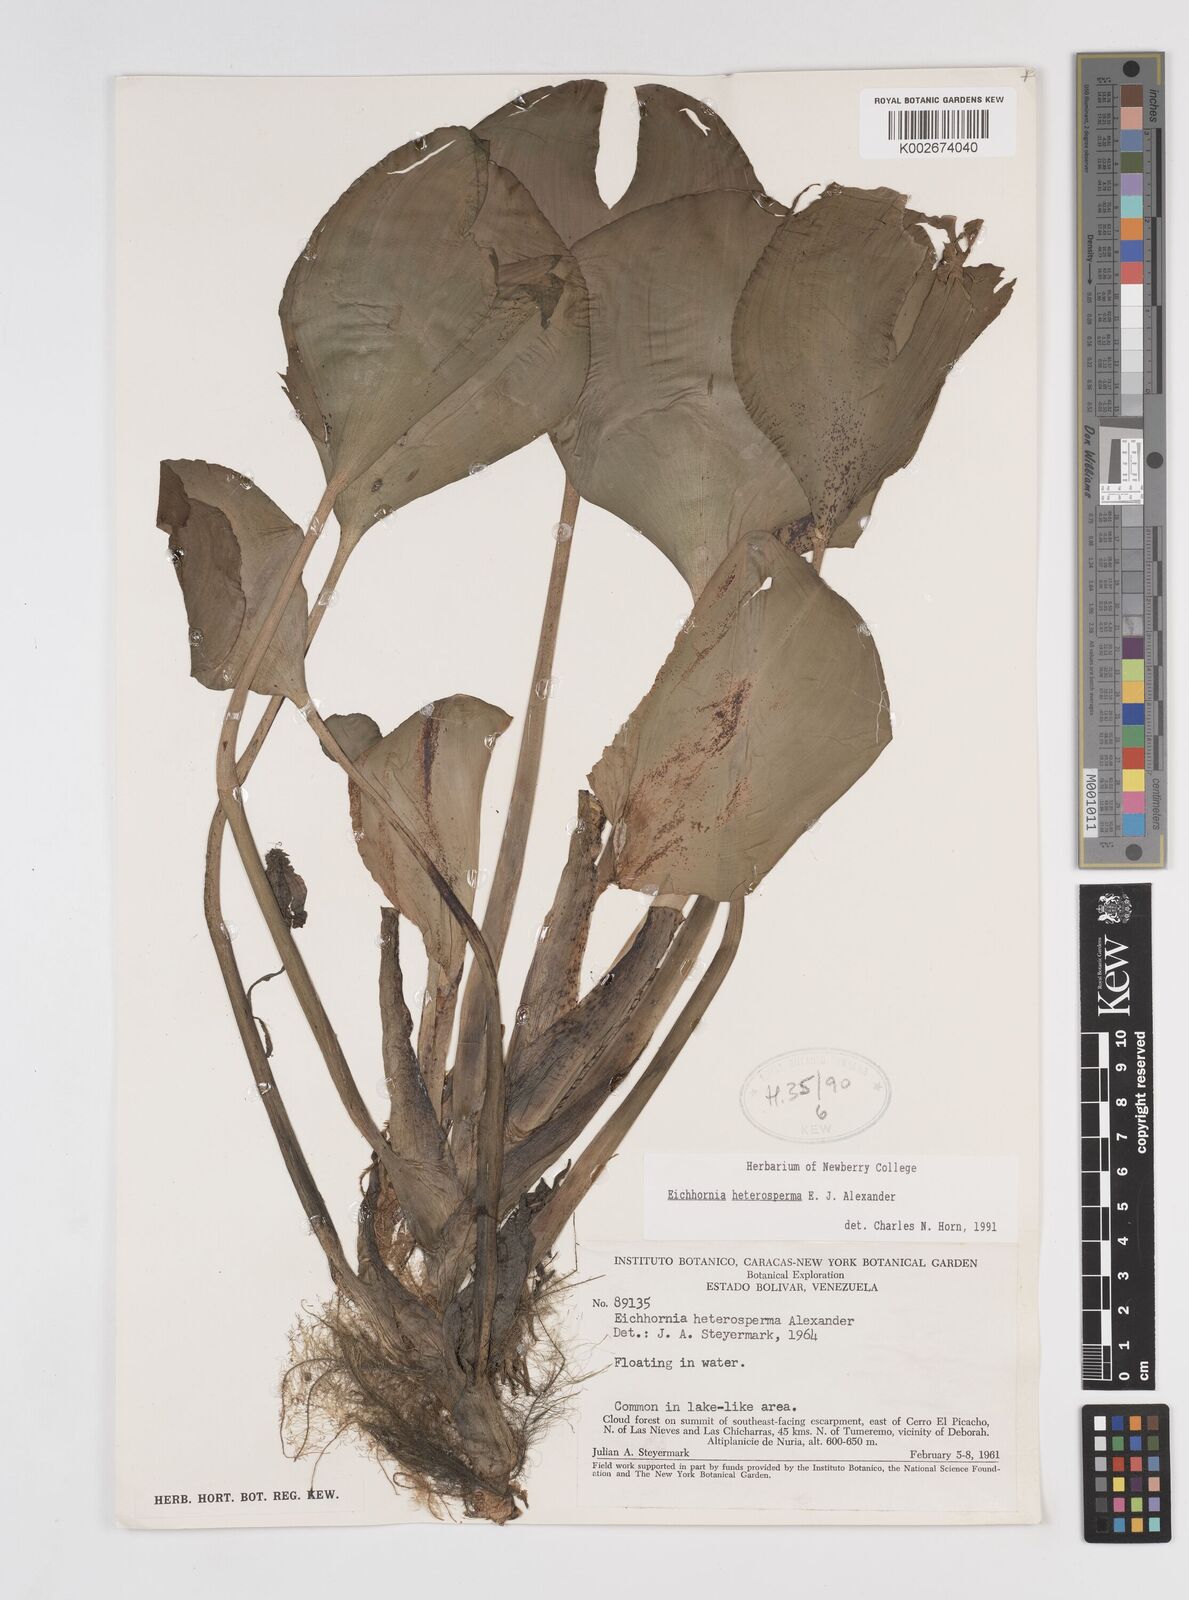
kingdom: Plantae
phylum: Tracheophyta
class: Liliopsida
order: Commelinales
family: Pontederiaceae
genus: Pontederia
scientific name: Pontederia heterosperma
